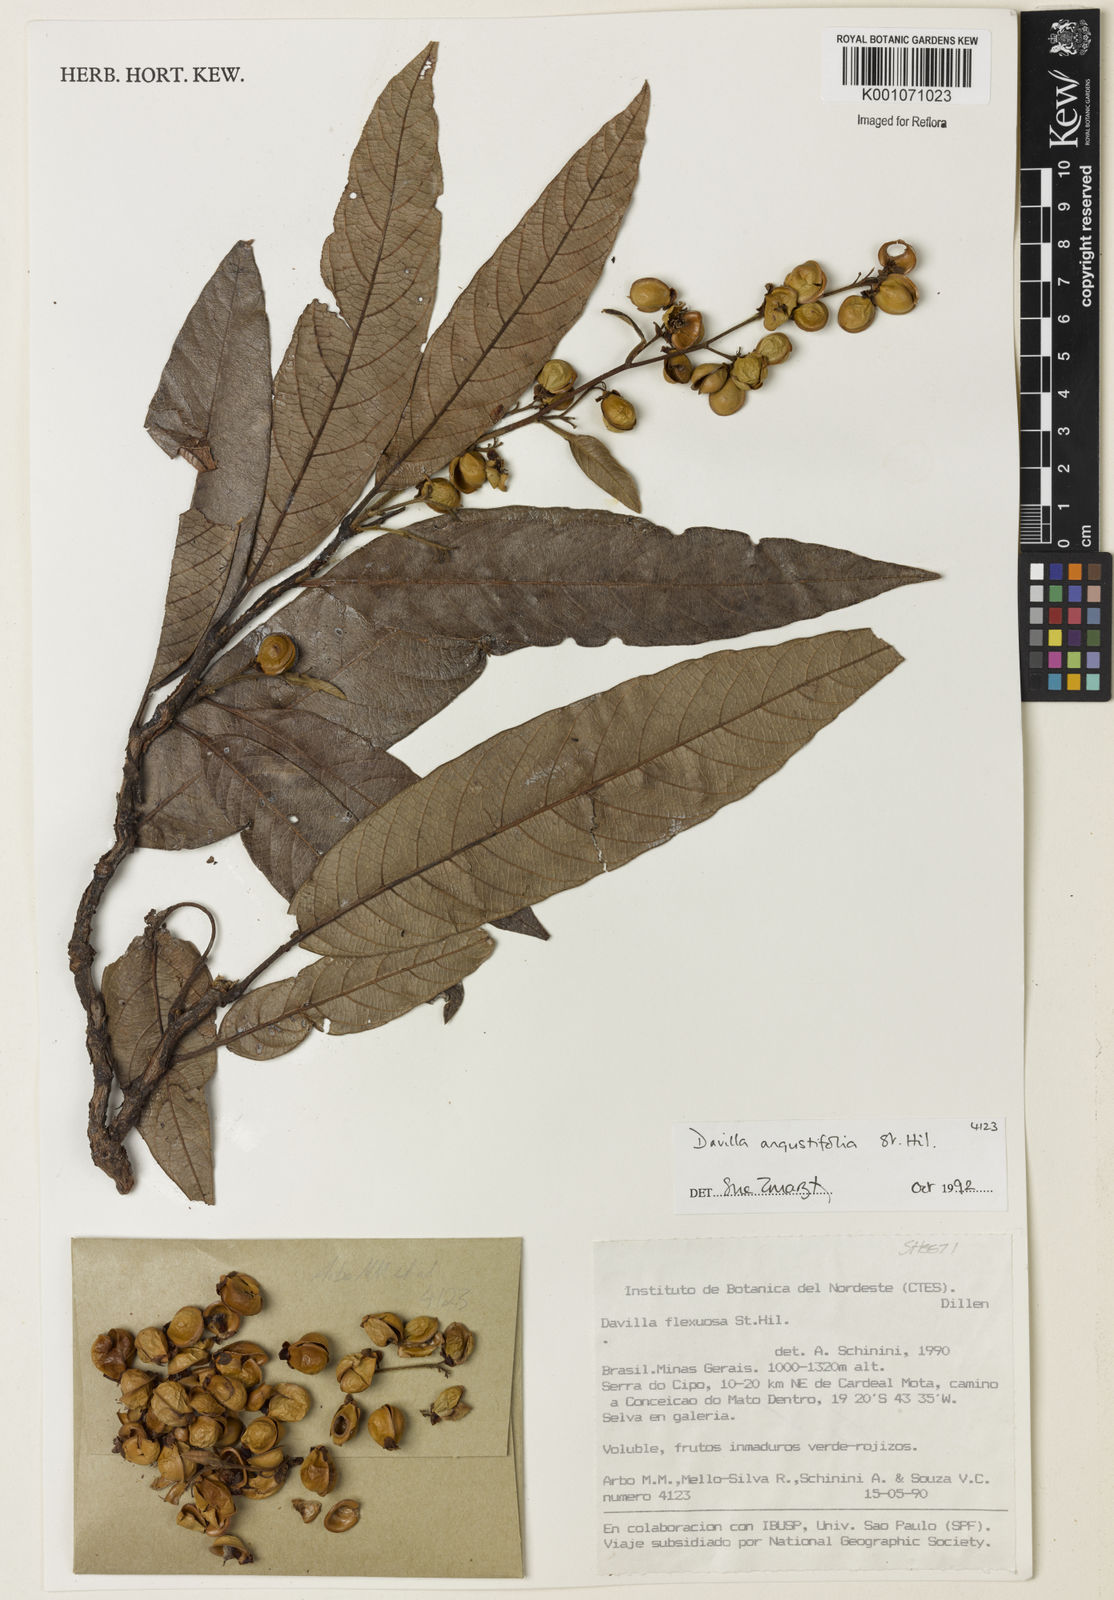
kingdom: Plantae
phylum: Tracheophyta
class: Magnoliopsida
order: Dilleniales
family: Dilleniaceae
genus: Davilla
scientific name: Davilla angustifolia
